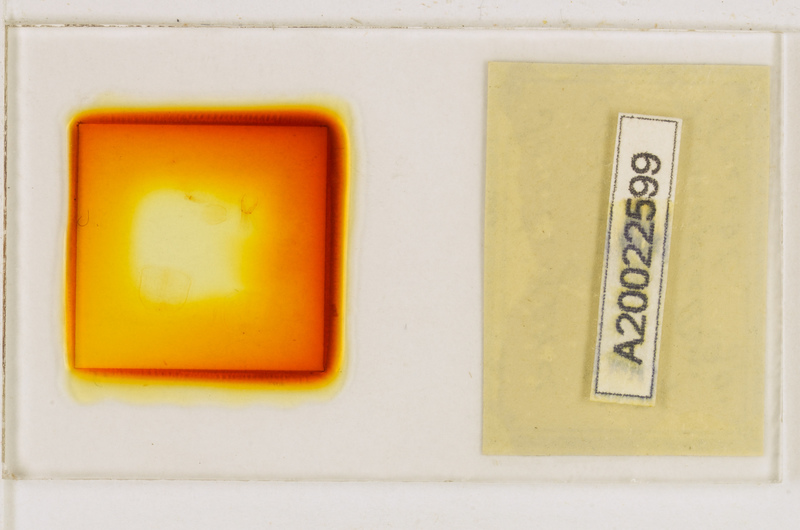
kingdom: Animalia
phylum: Arthropoda
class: Chilopoda
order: Scutigeromorpha
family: Scutigeridae
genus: Scutigera
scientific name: Scutigera coleoptrata
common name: House centipede
